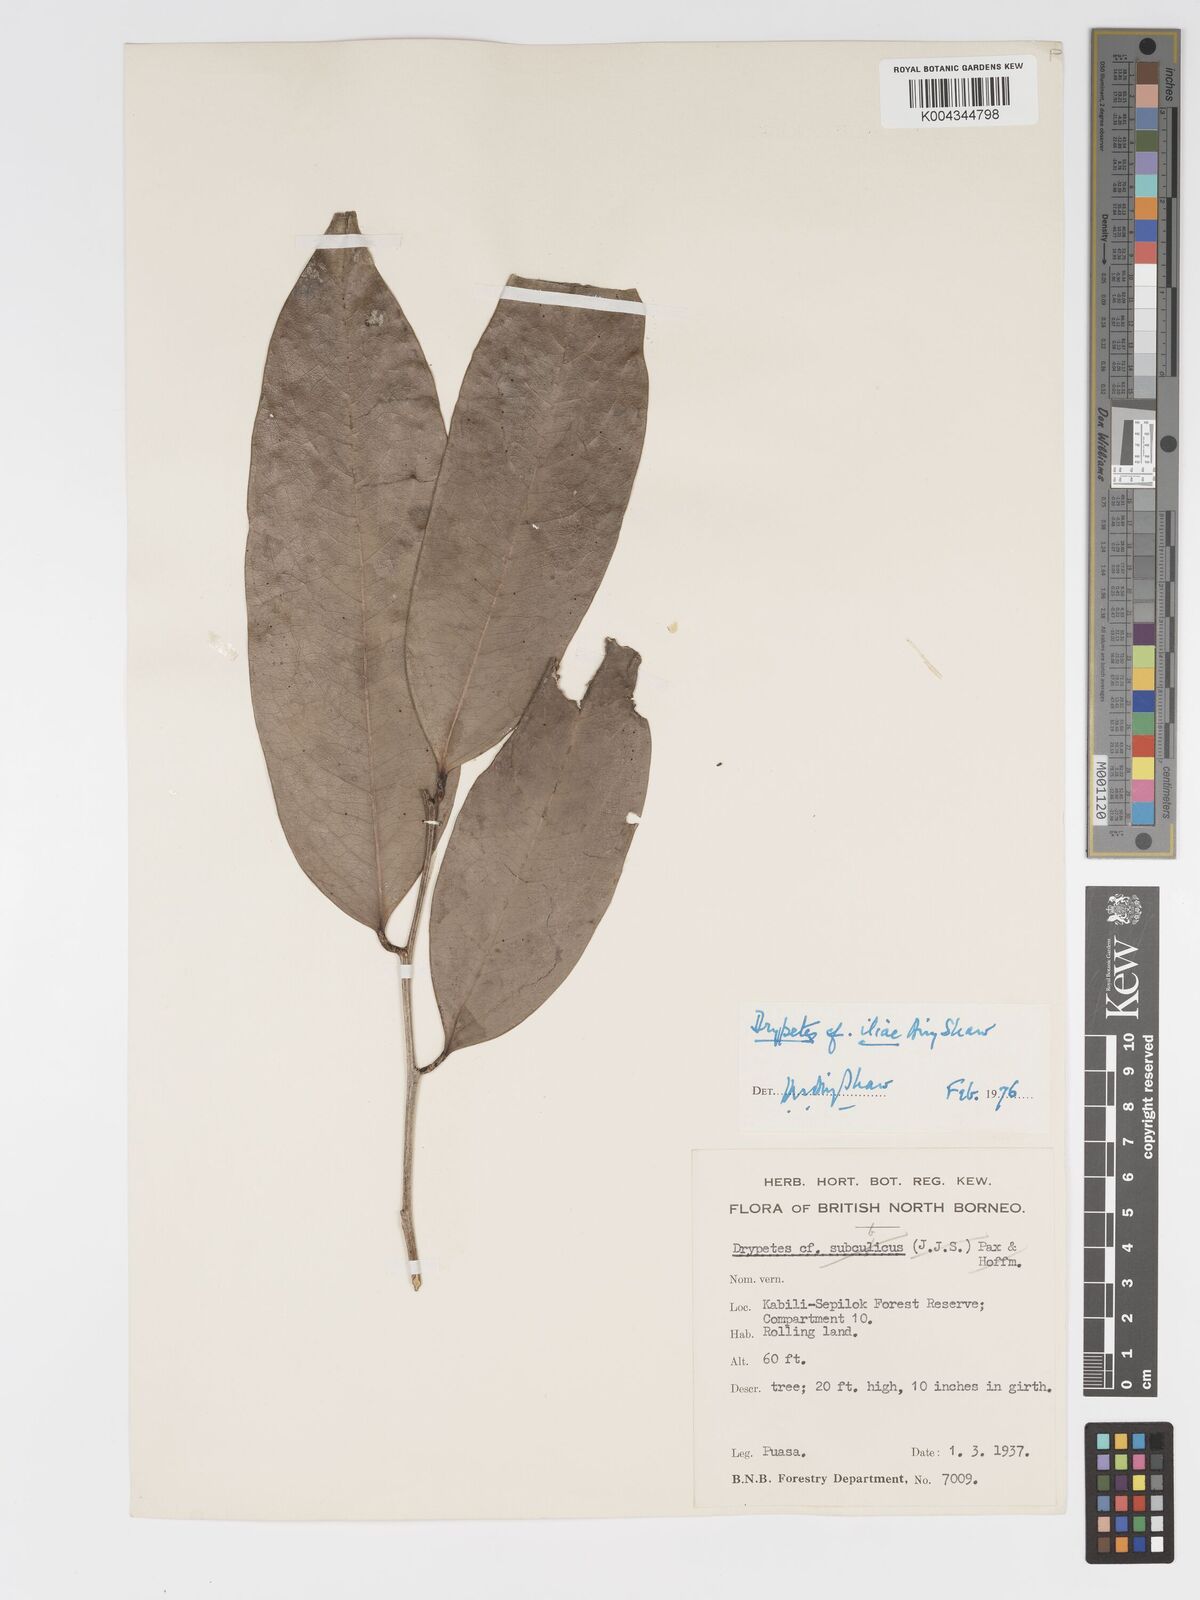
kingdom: Plantae
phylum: Tracheophyta
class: Magnoliopsida
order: Malpighiales
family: Putranjivaceae
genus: Drypetes
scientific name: Drypetes iliae
